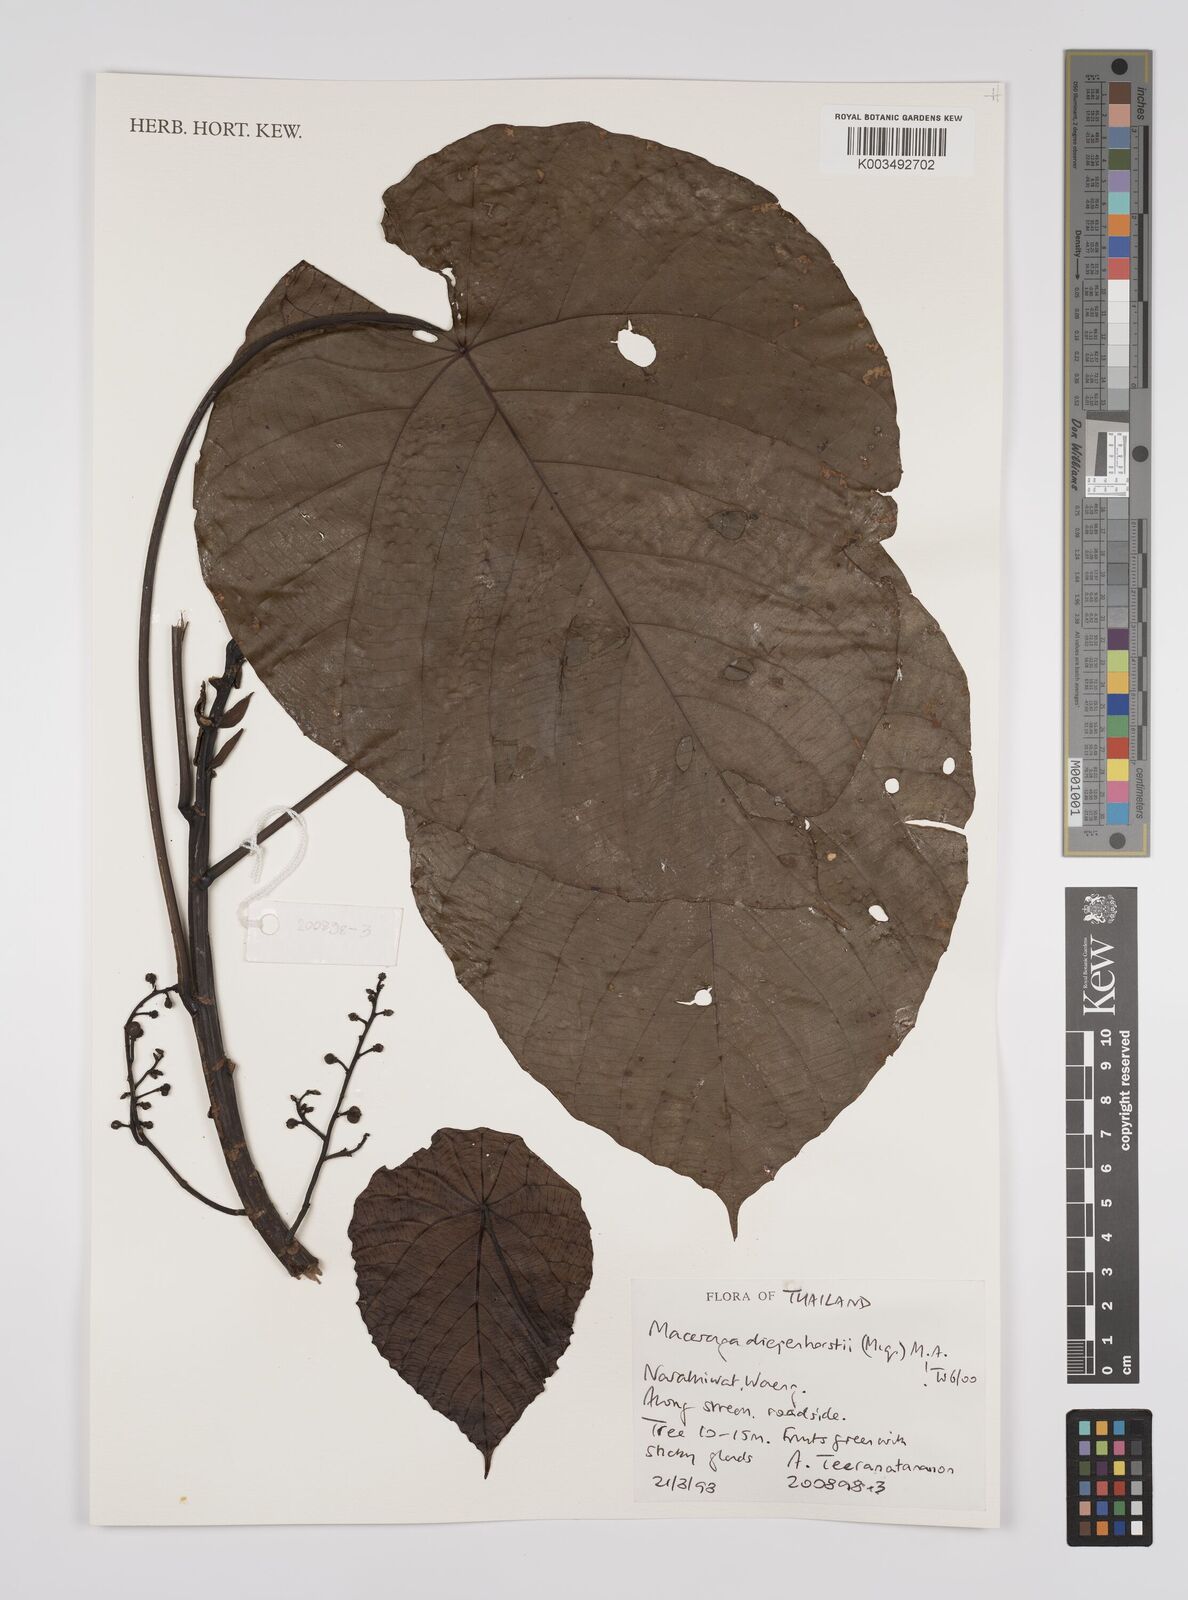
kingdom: Plantae
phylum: Tracheophyta
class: Magnoliopsida
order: Malpighiales
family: Euphorbiaceae
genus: Macaranga
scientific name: Macaranga diepenhorstii
